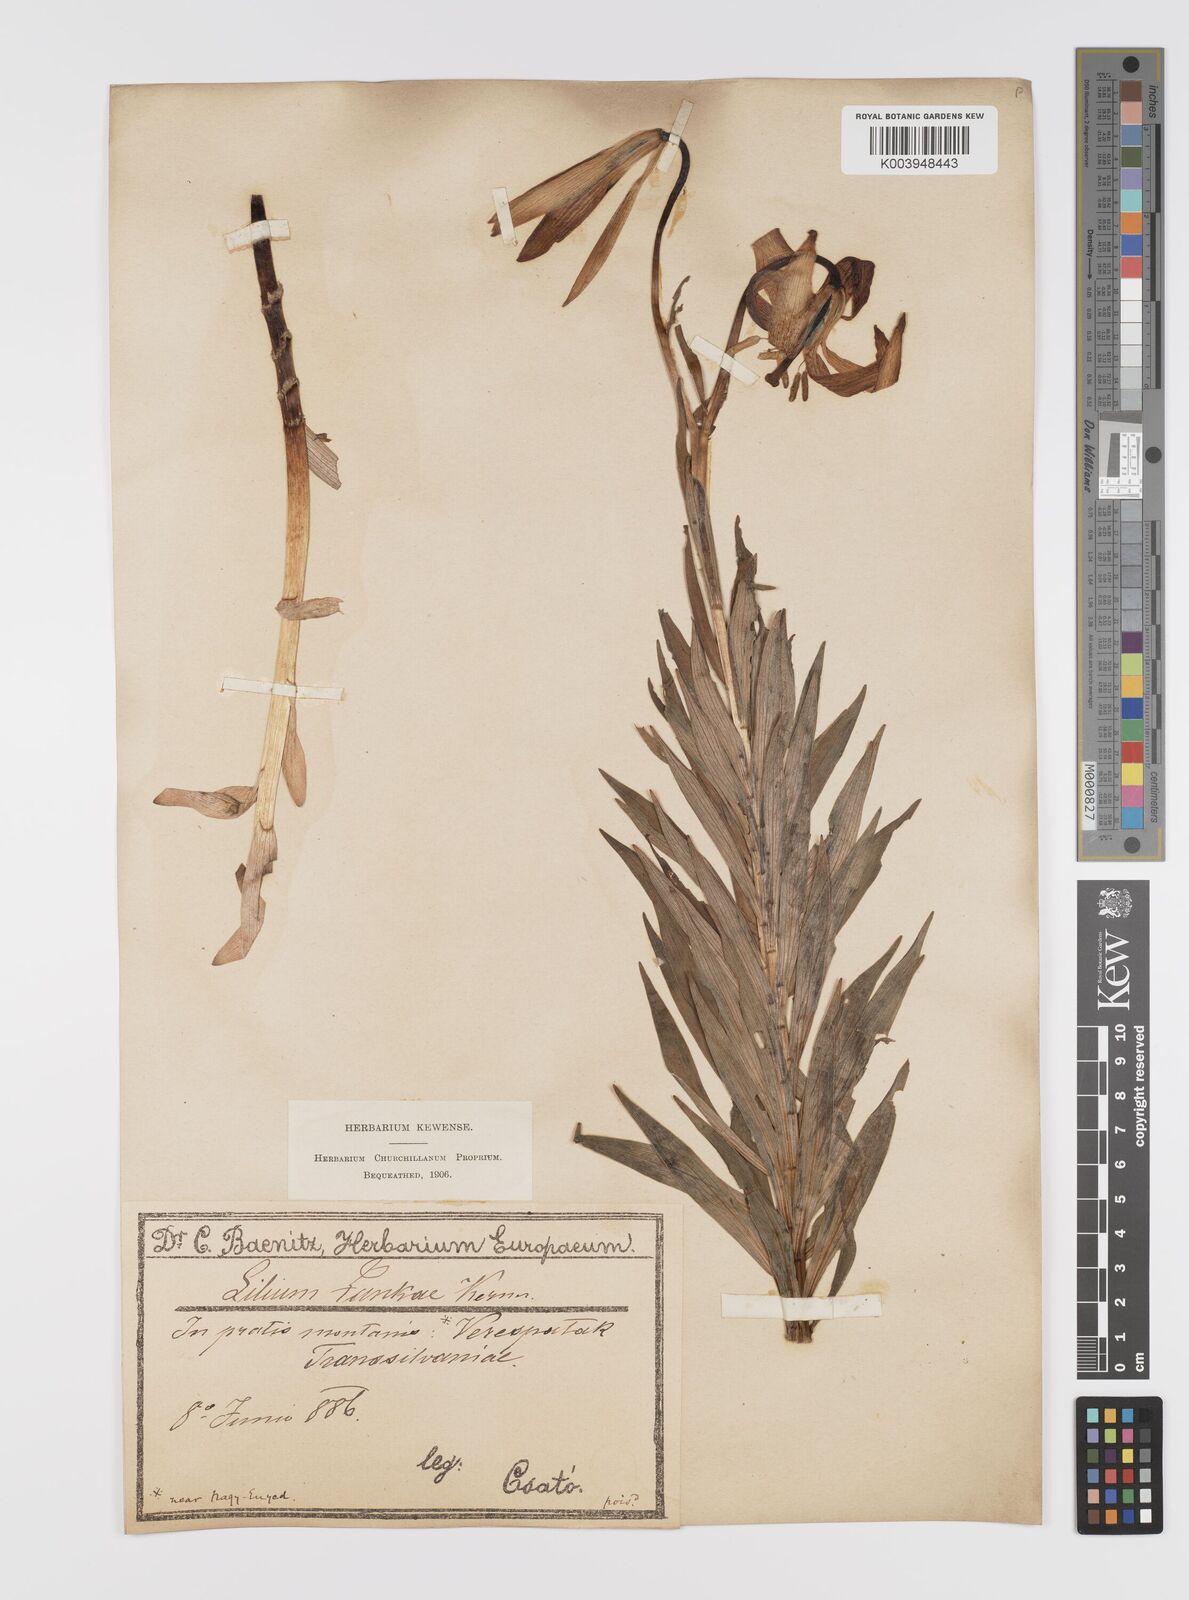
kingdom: Plantae
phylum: Tracheophyta
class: Liliopsida
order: Liliales
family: Liliaceae
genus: Lilium
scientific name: Lilium jankae
